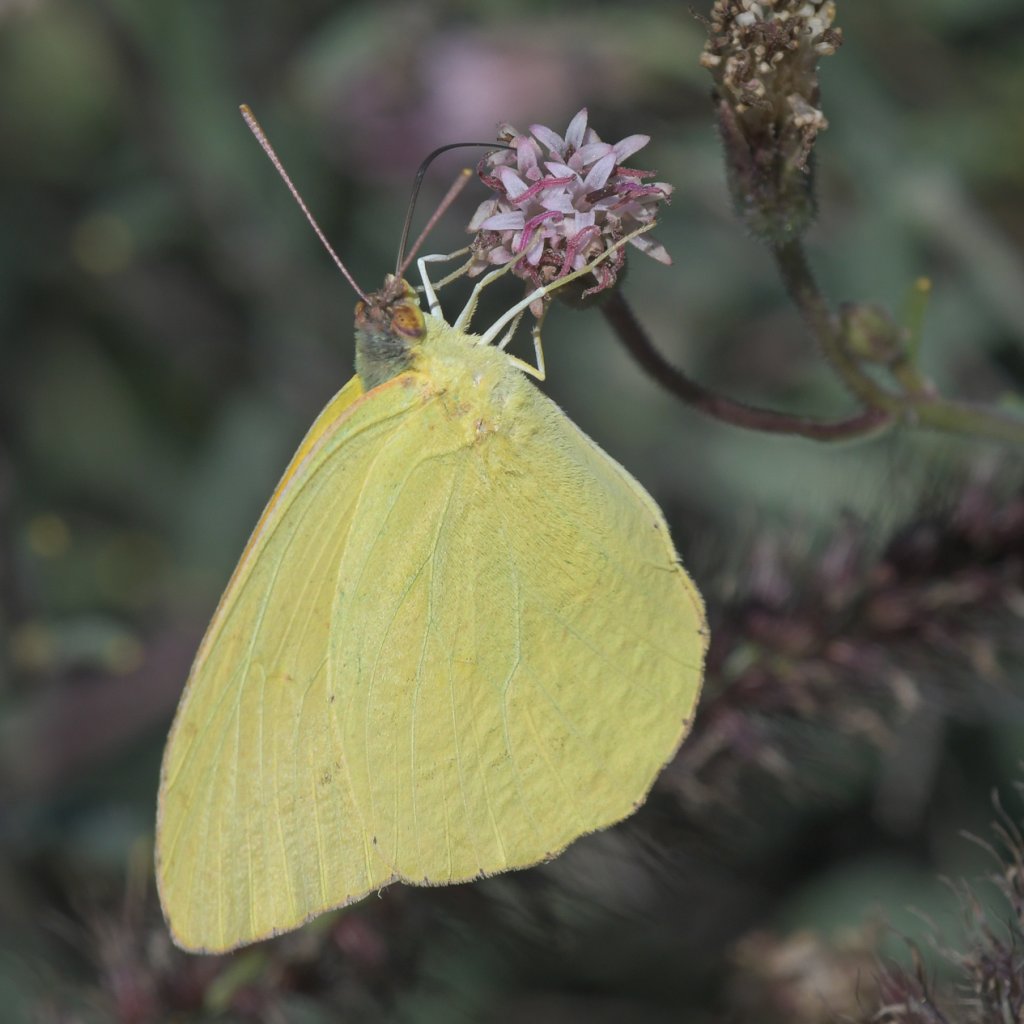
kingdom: Animalia
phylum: Arthropoda
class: Insecta
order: Lepidoptera
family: Pieridae
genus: Phoebis
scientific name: Phoebis agarithe
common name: Large Orange Sulphur
